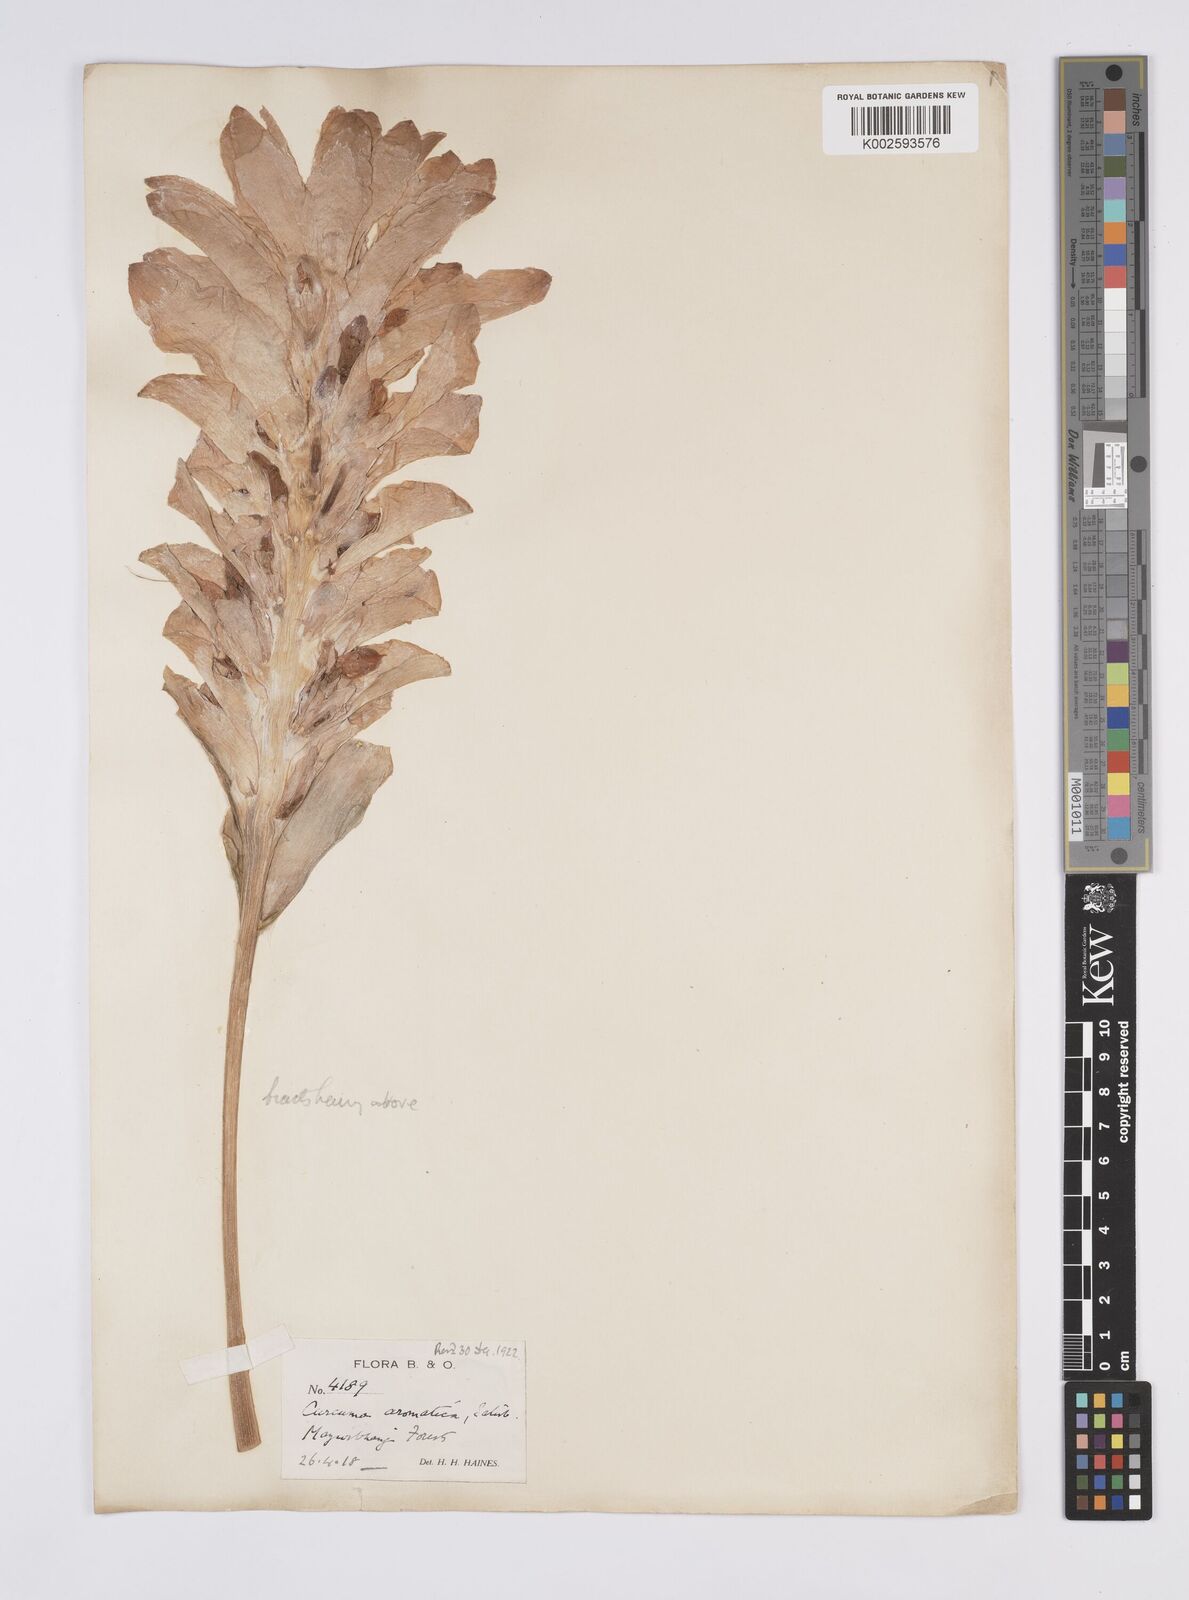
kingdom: Plantae
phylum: Tracheophyta
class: Liliopsida
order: Zingiberales
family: Zingiberaceae
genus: Curcuma
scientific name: Curcuma aromatica
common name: Wild turmeric
